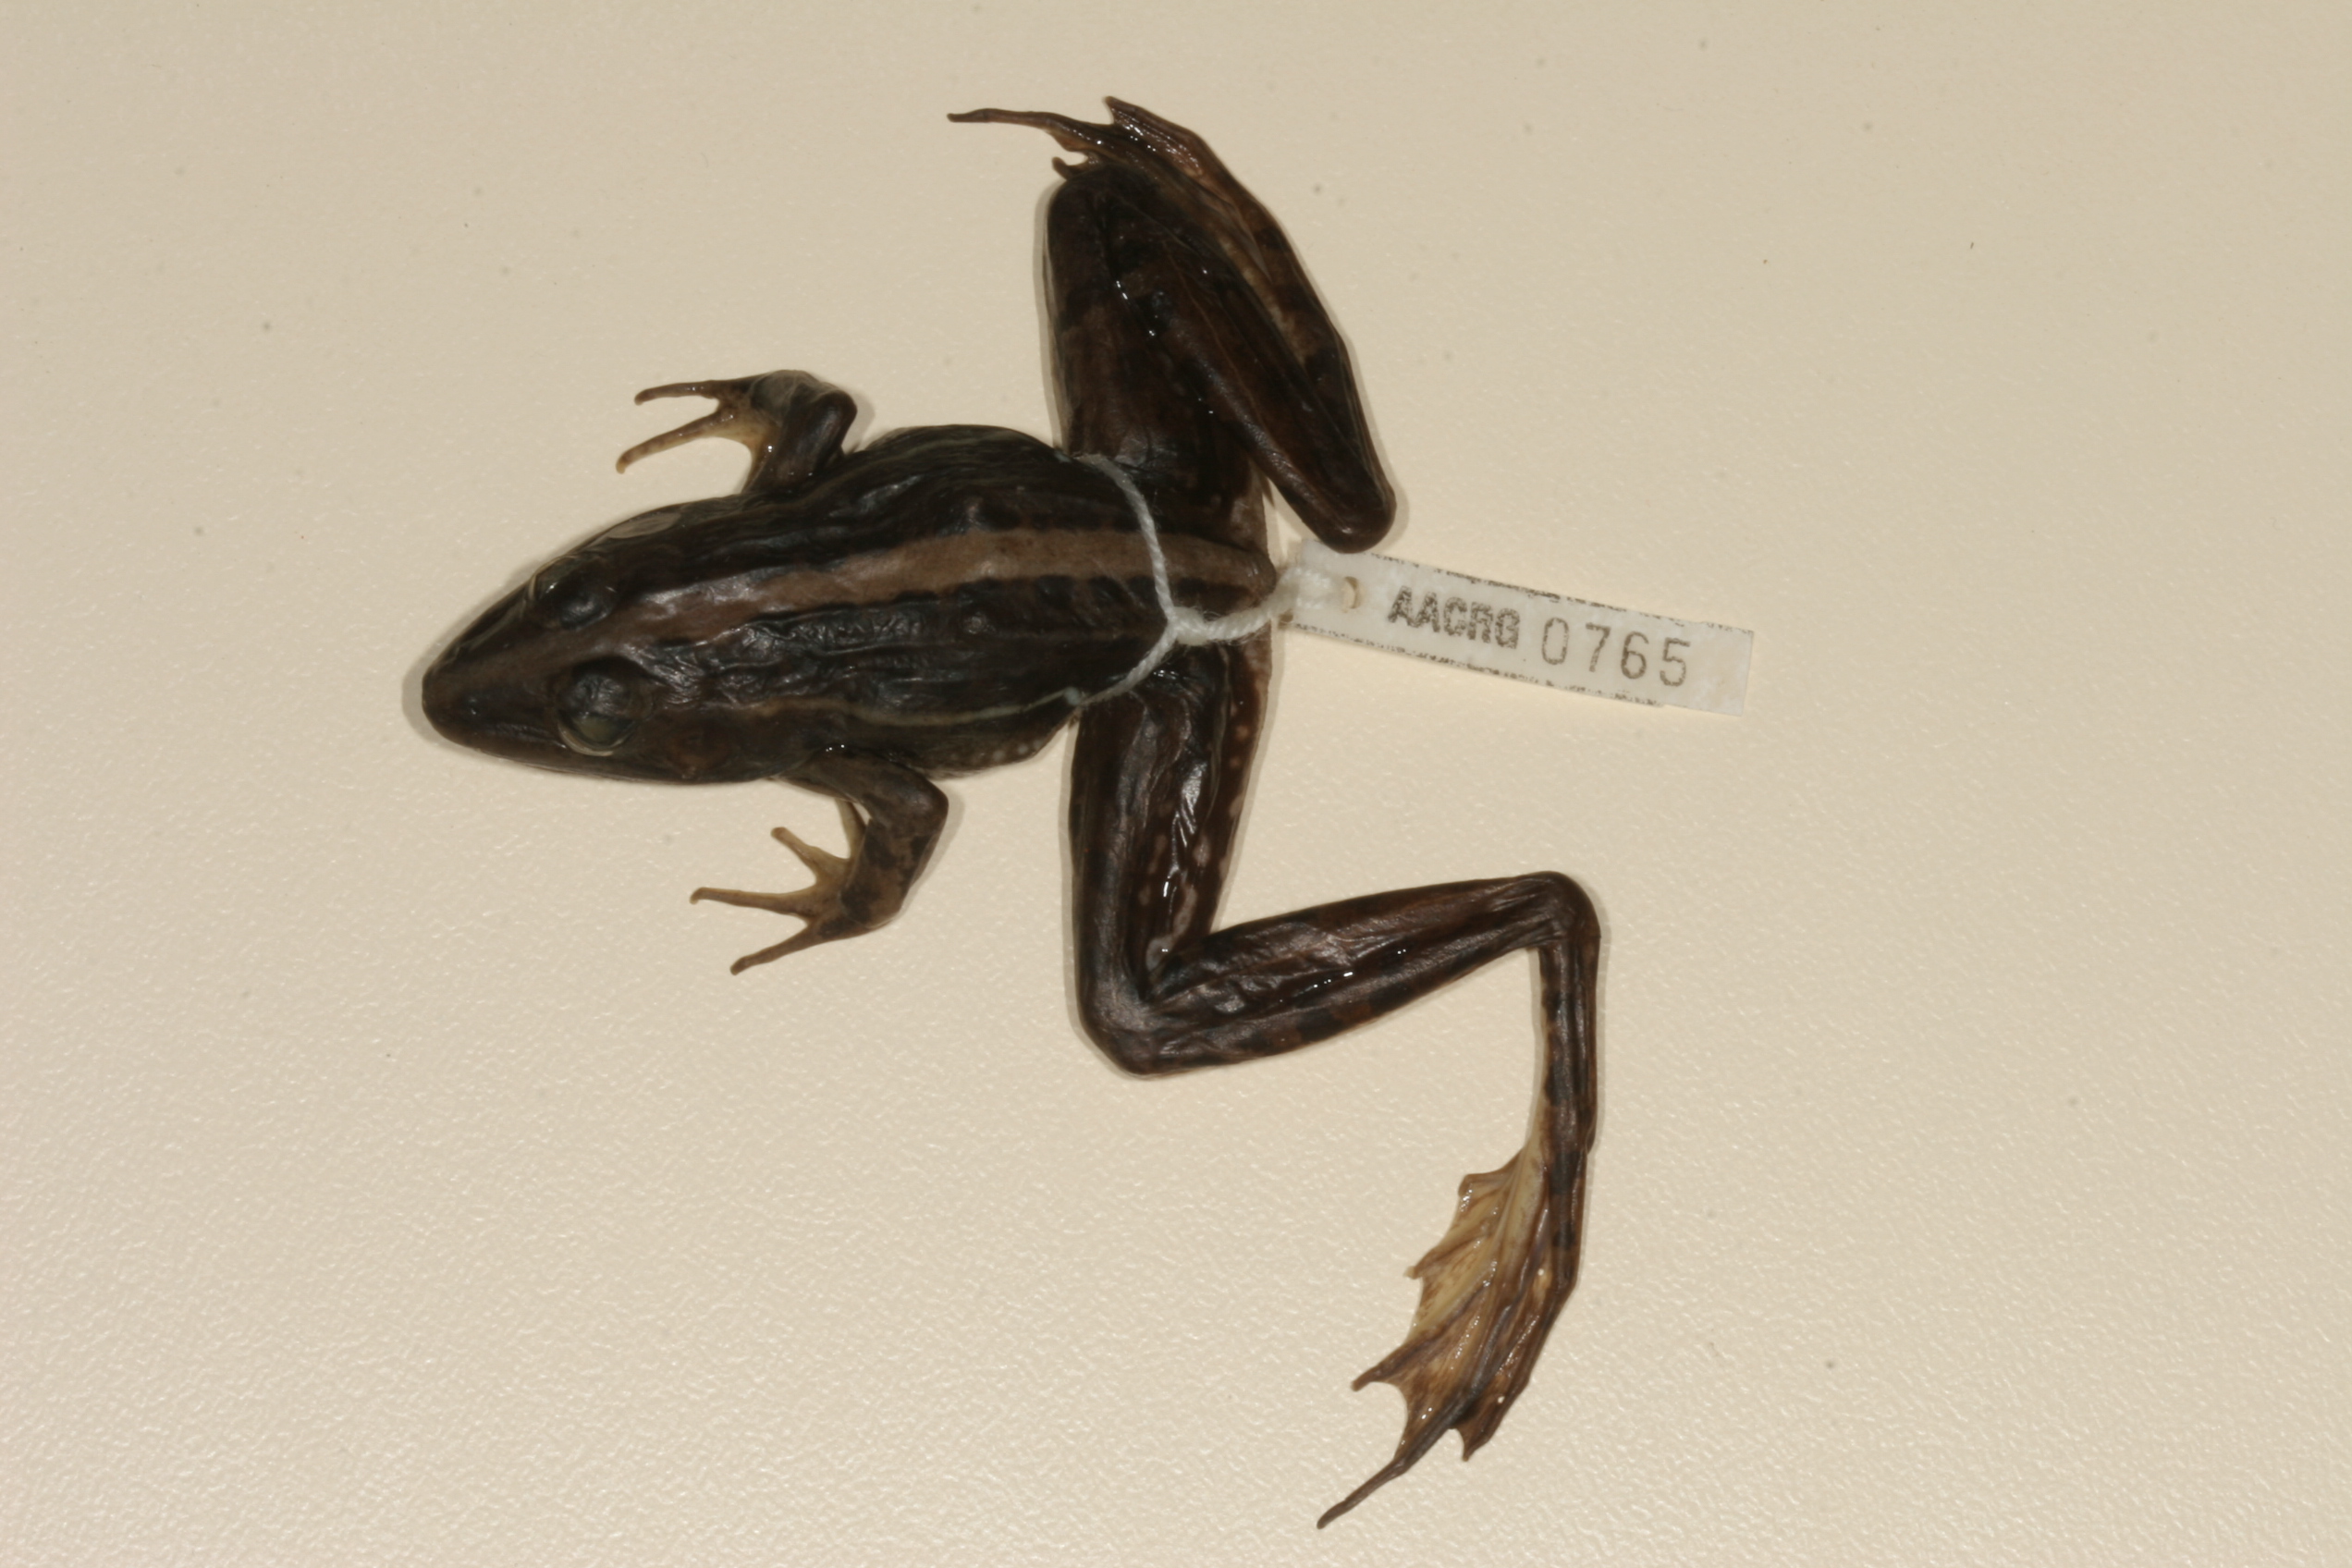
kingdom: Animalia
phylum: Chordata
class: Amphibia
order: Anura
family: Ptychadenidae
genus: Ptychadena
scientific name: Ptychadena subpunctata
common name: Bocage's grassland frog
